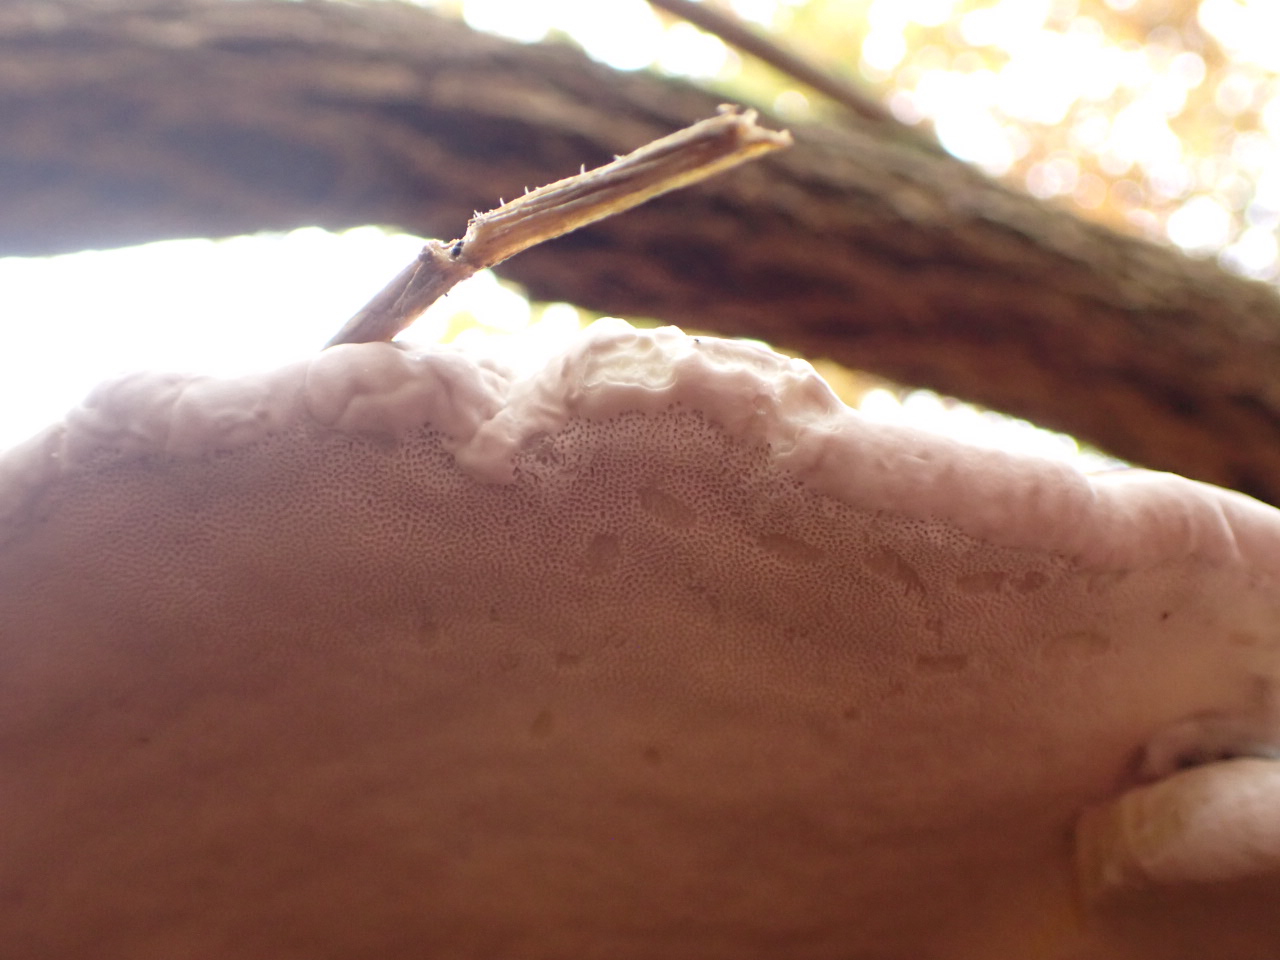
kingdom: Fungi
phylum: Basidiomycota
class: Agaricomycetes
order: Polyporales
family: Fomitopsidaceae
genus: Fomitopsis
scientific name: Fomitopsis pinicola
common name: randbæltet hovporesvamp
